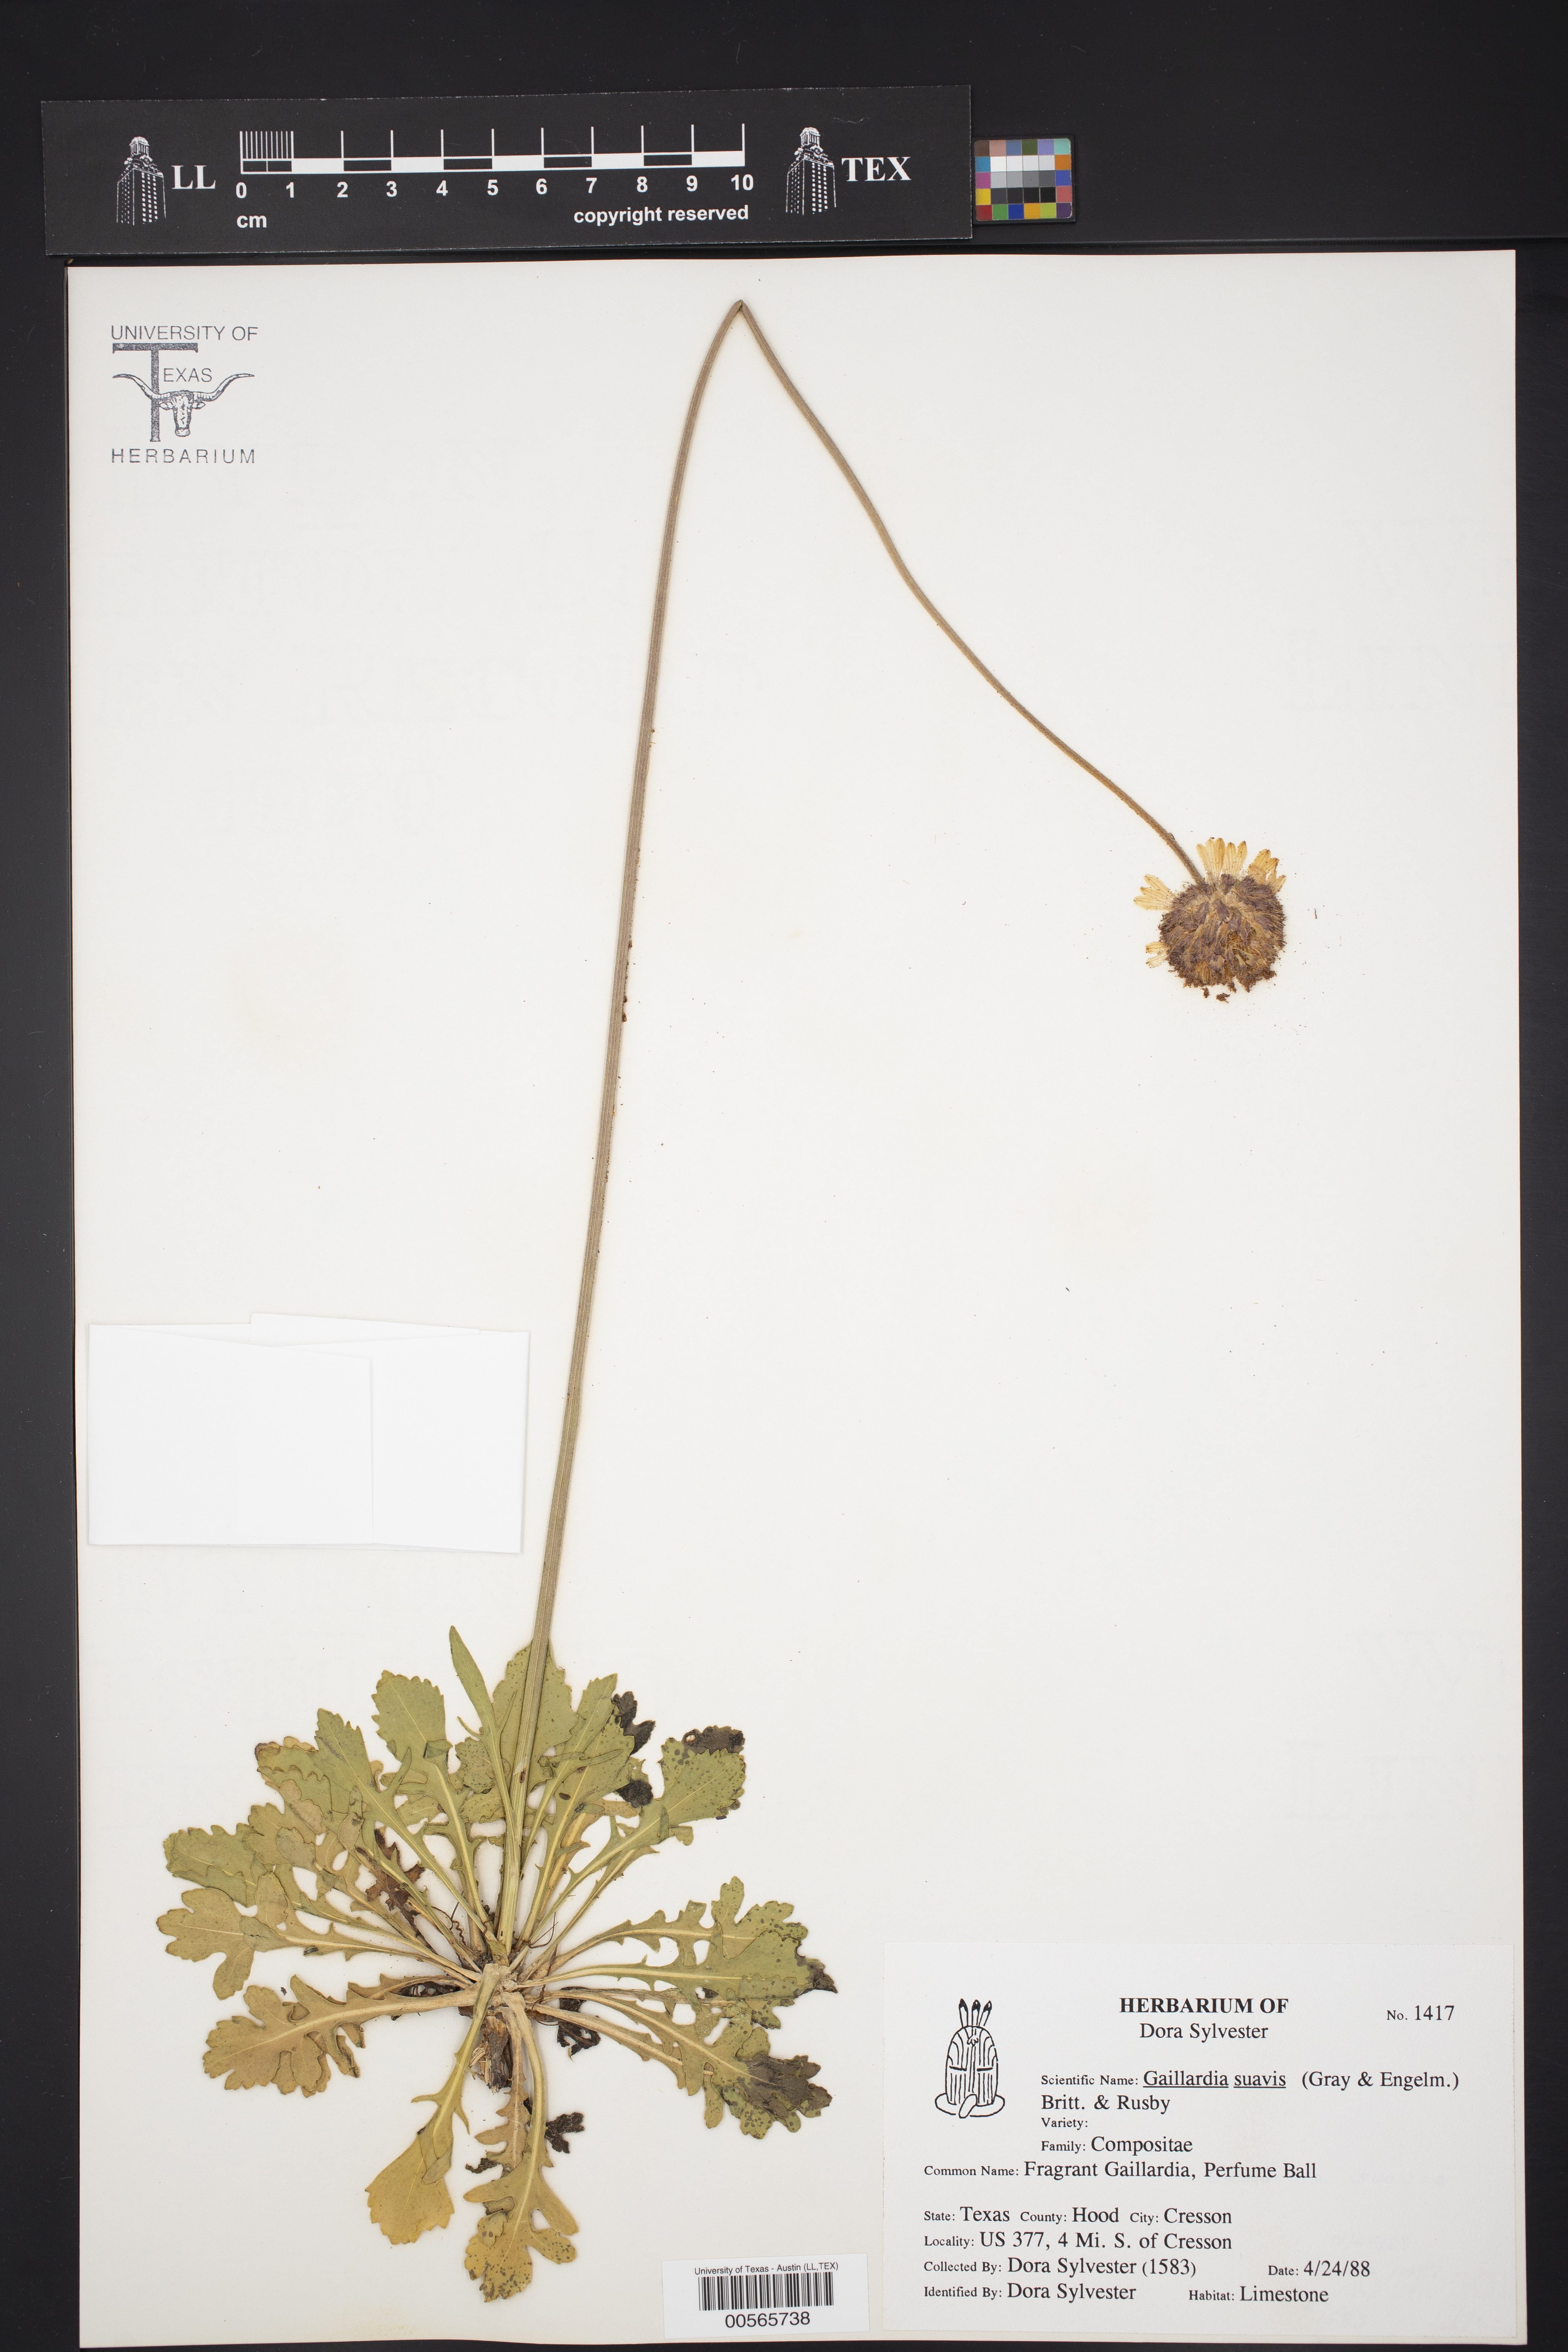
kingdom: Plantae
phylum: Tracheophyta
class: Magnoliopsida
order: Asterales
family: Asteraceae
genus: Gaillardia
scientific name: Gaillardia suavis
